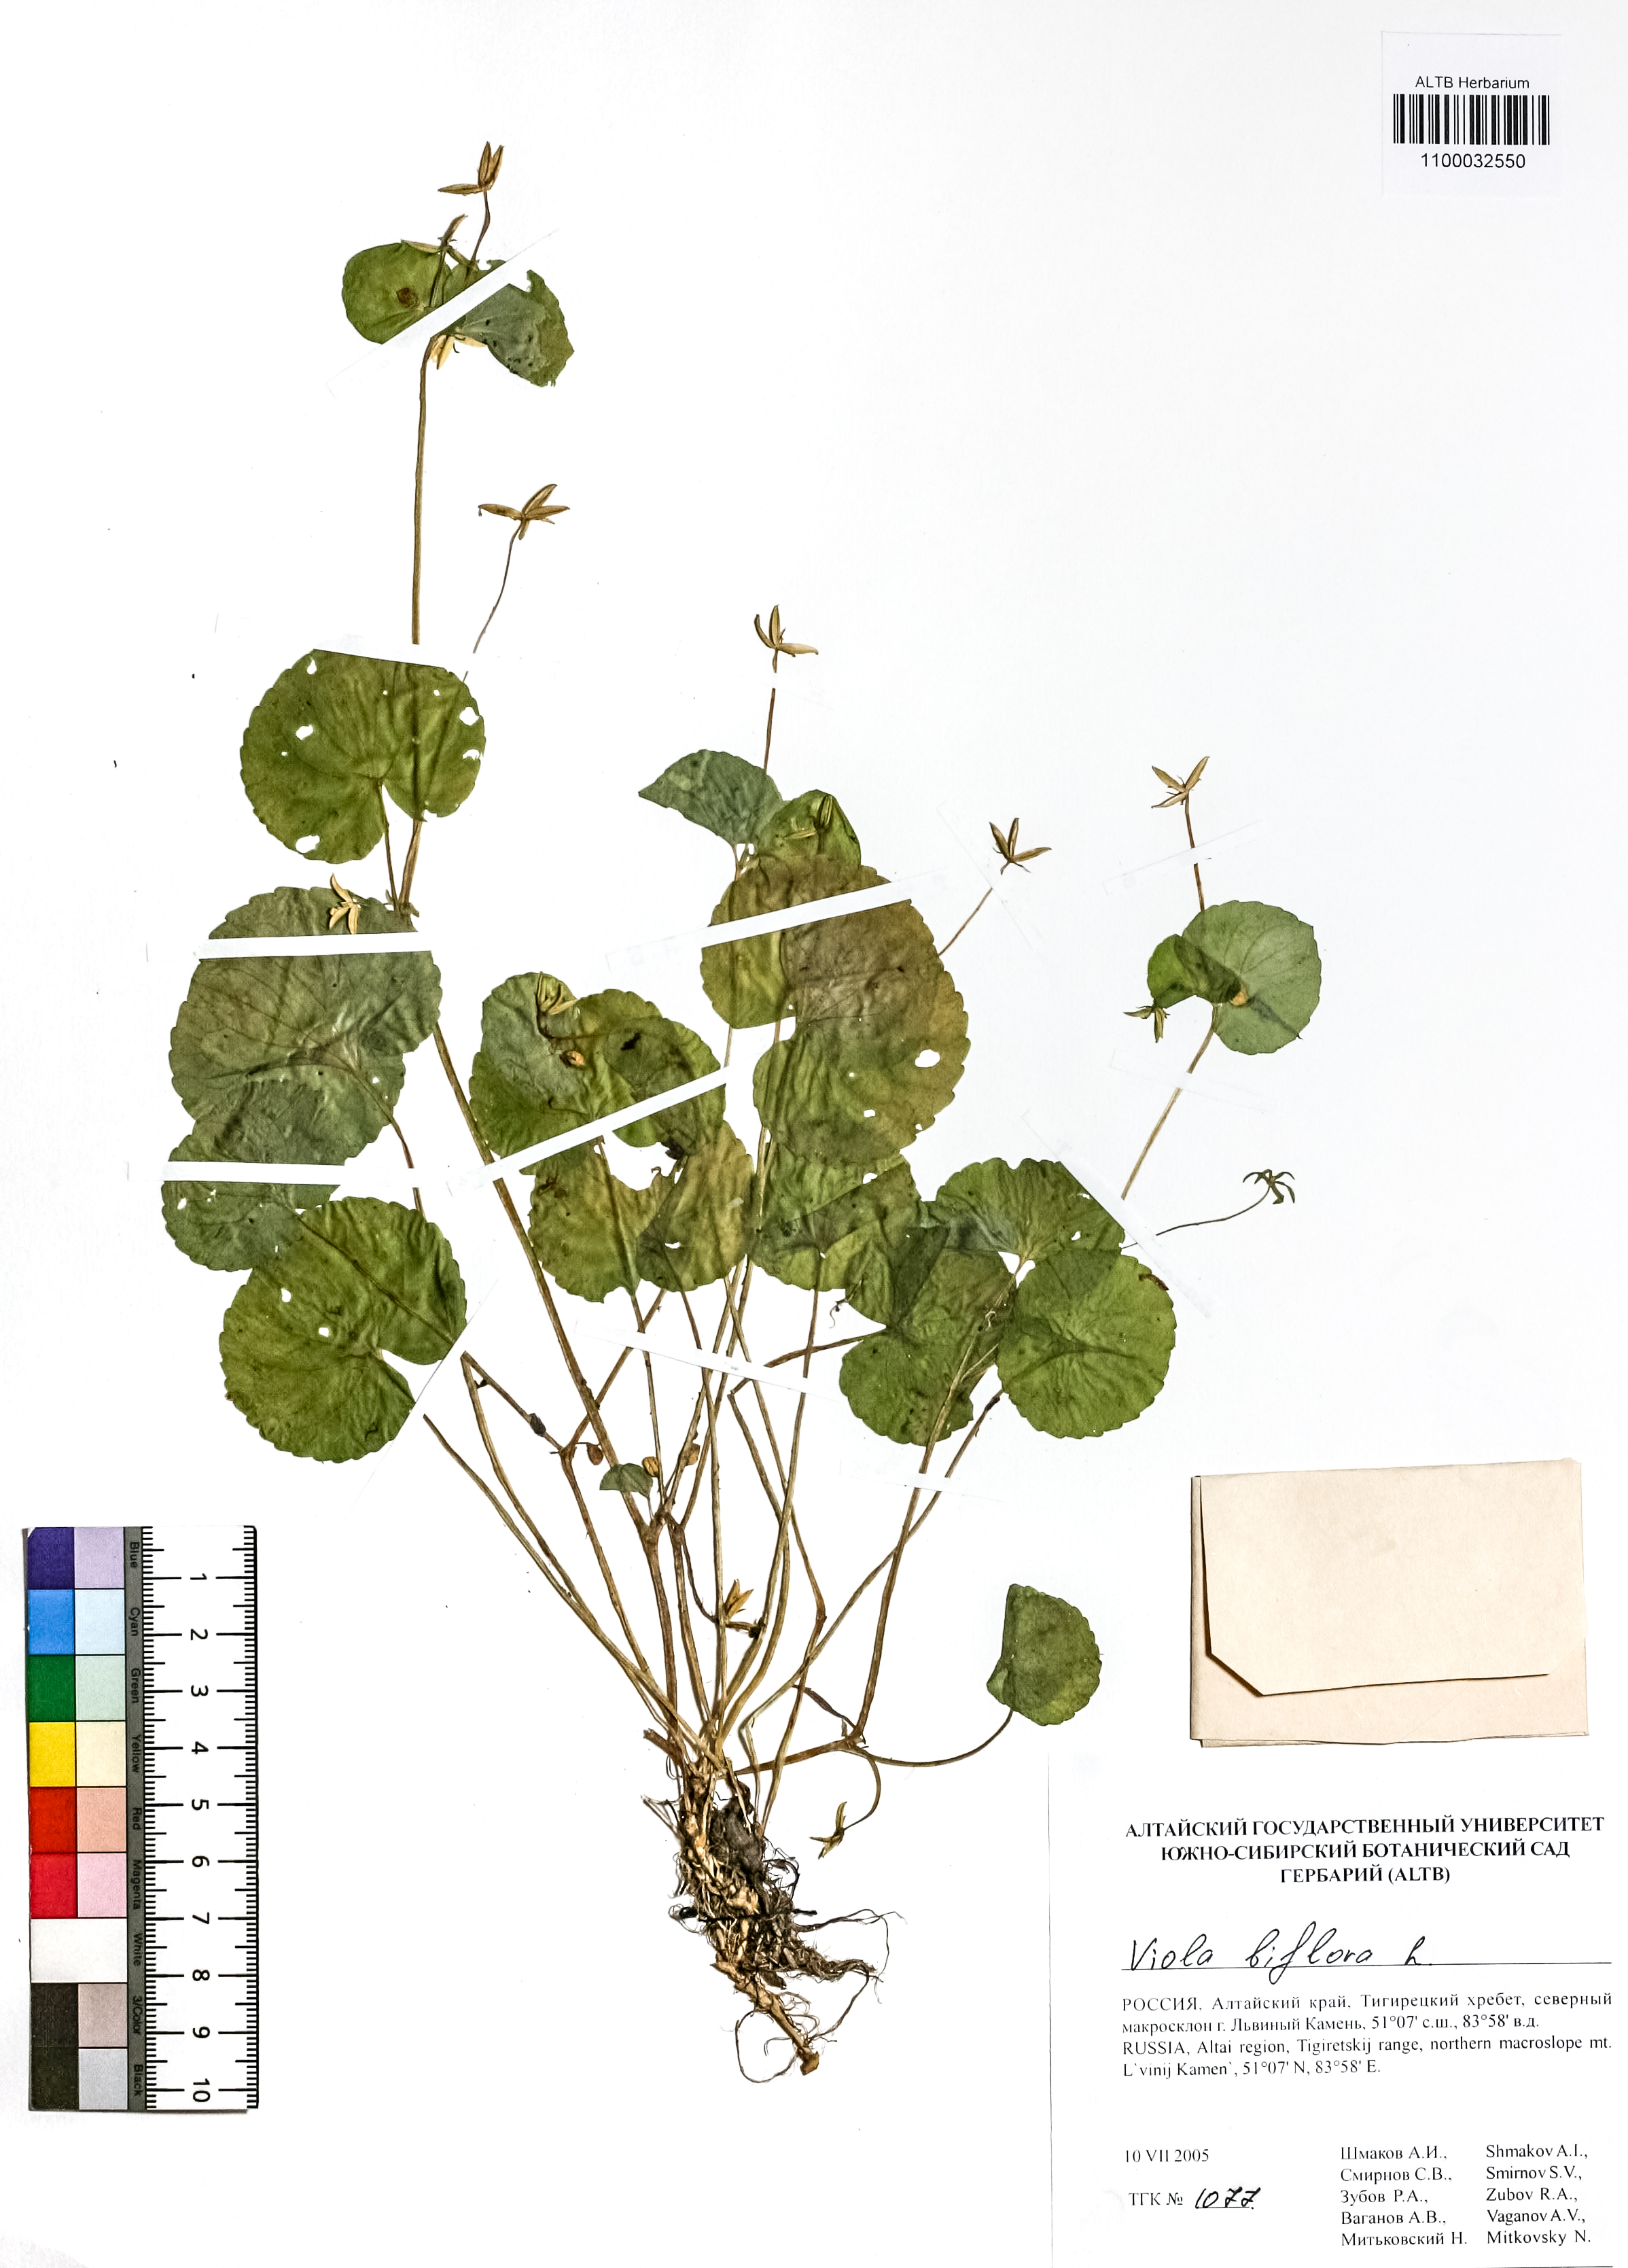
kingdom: Plantae
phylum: Tracheophyta
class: Magnoliopsida
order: Malpighiales
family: Violaceae
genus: Viola
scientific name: Viola biflora
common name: Alpine yellow violet
